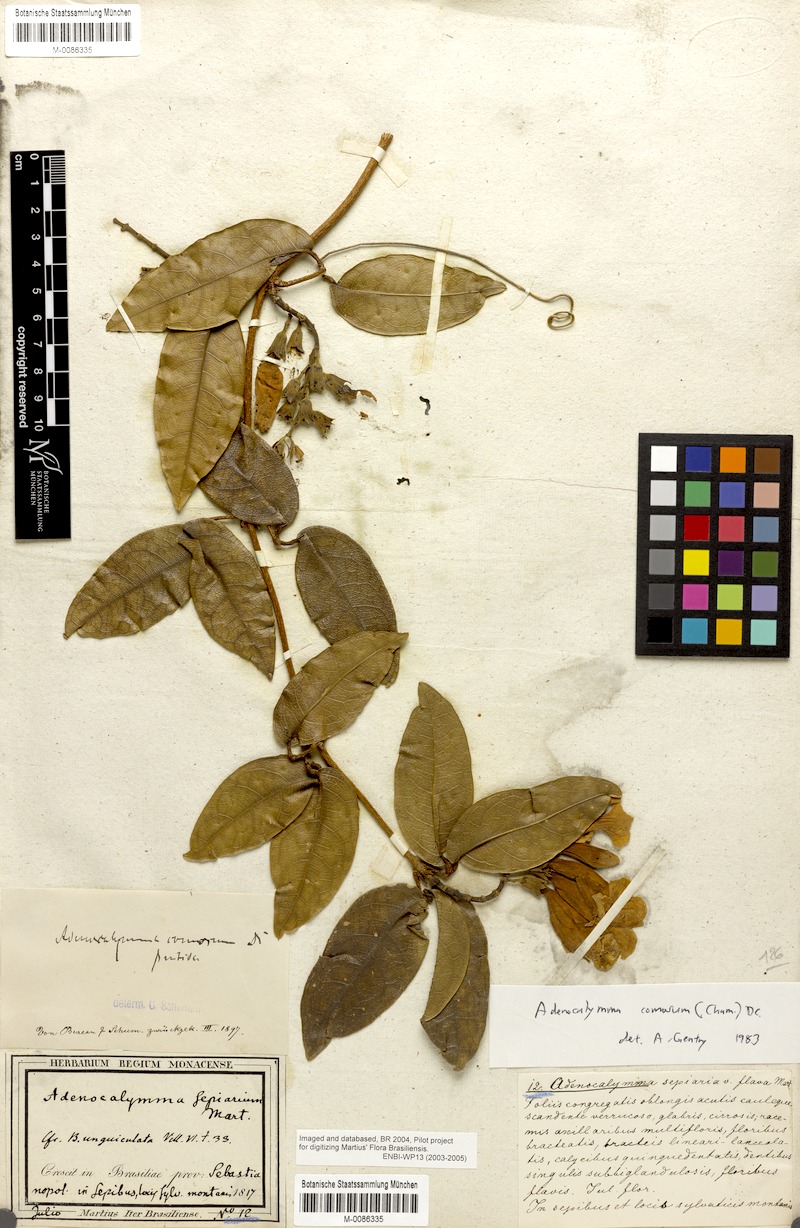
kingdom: Plantae
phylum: Tracheophyta
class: Magnoliopsida
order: Lamiales
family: Bignoniaceae
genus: Adenocalymma
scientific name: Adenocalymma acutissimum
